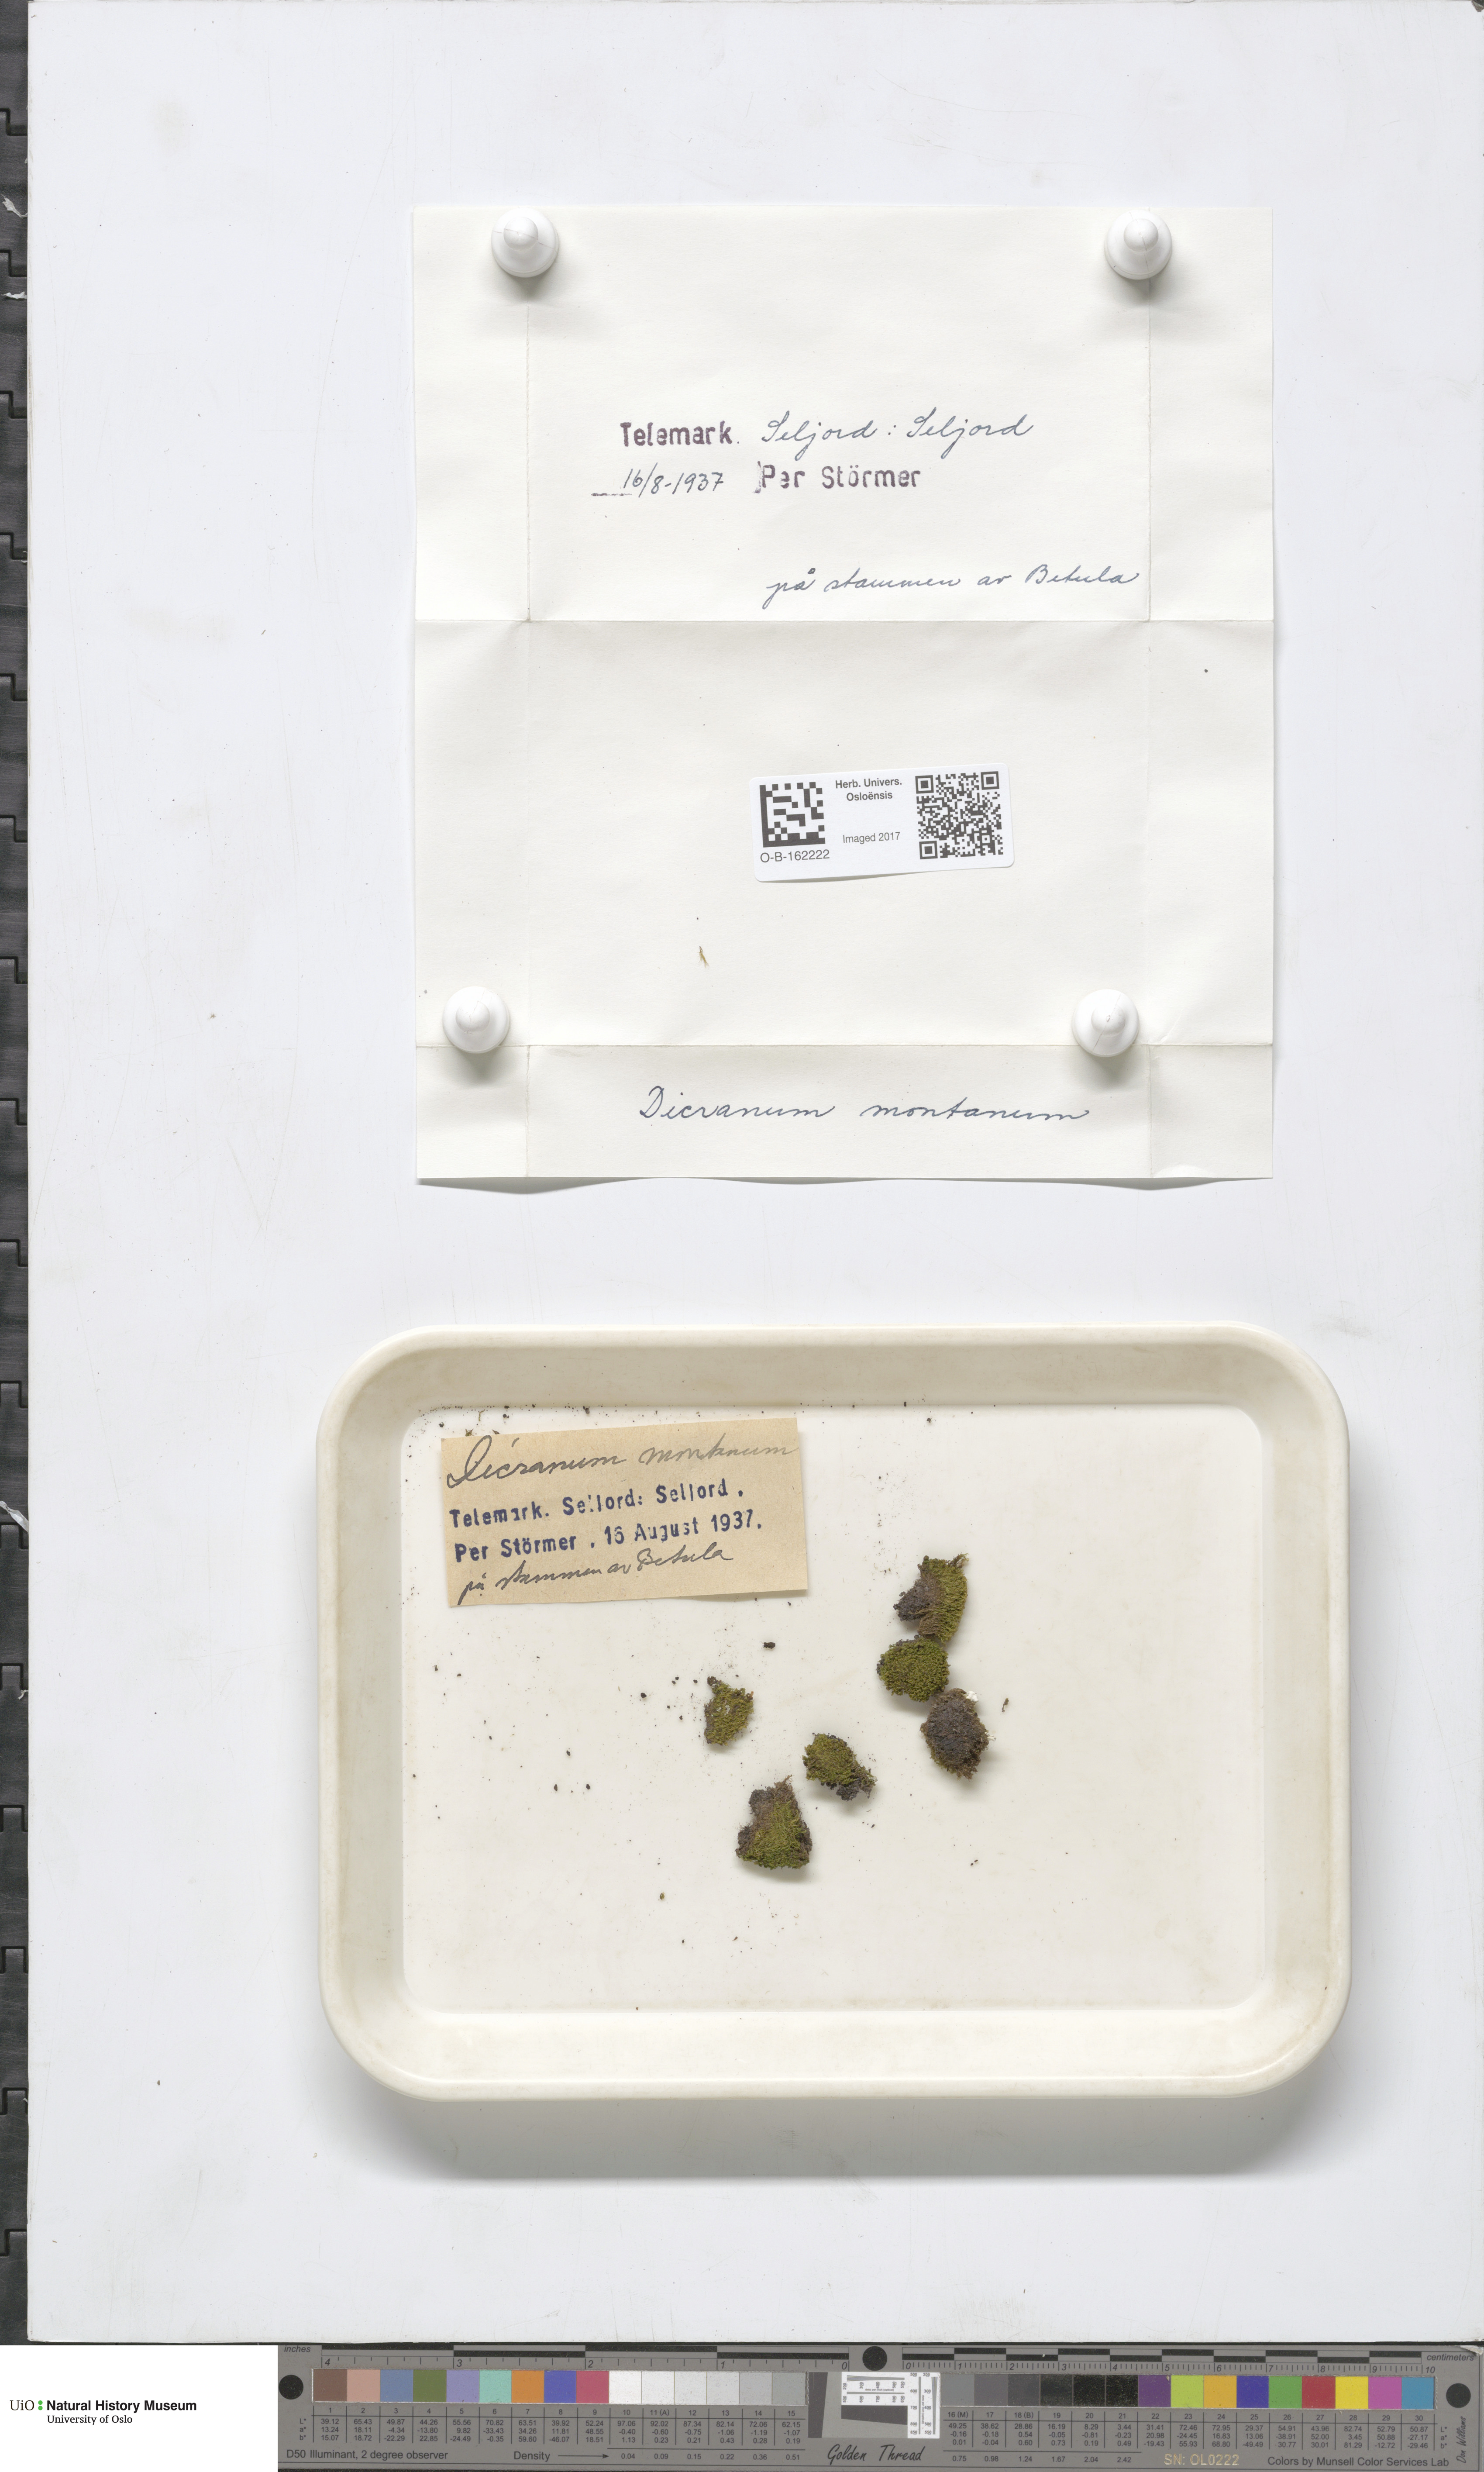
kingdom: Plantae
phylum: Bryophyta
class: Bryopsida
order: Dicranales
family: Dicranaceae
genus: Orthodicranum
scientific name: Orthodicranum montanum
